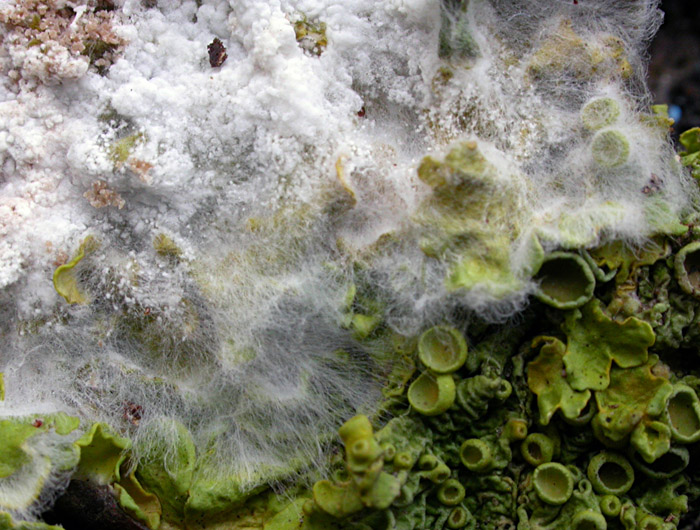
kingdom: Fungi
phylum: Basidiomycota
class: Agaricomycetes
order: Atheliales
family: Atheliaceae
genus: Athelia
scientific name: Athelia arachnoidea
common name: randet barkhinde
